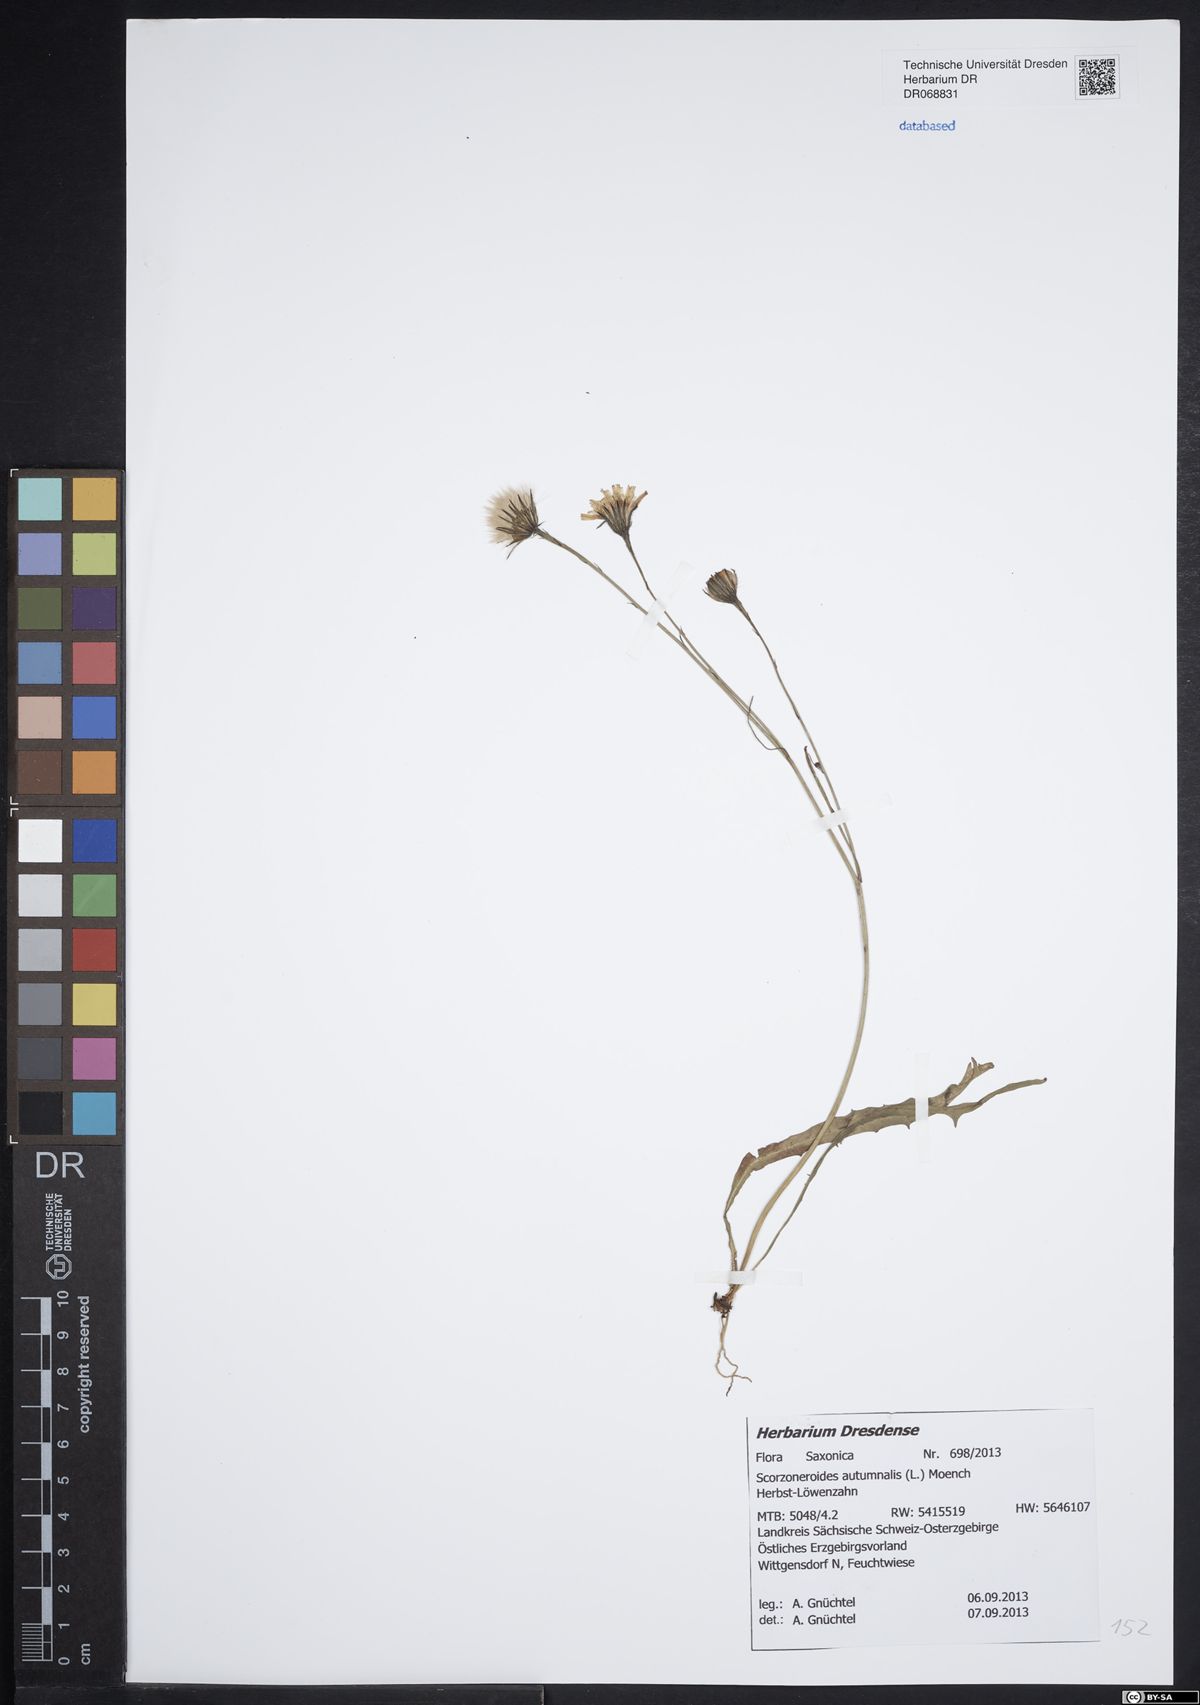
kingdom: Plantae
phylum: Tracheophyta
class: Magnoliopsida
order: Asterales
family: Asteraceae
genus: Scorzoneroides
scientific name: Scorzoneroides autumnalis
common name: Autumn hawkbit
